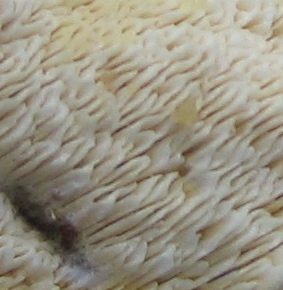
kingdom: Fungi
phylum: Basidiomycota
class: Agaricomycetes
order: Hymenochaetales
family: Schizoporaceae
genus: Xylodon
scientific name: Xylodon
